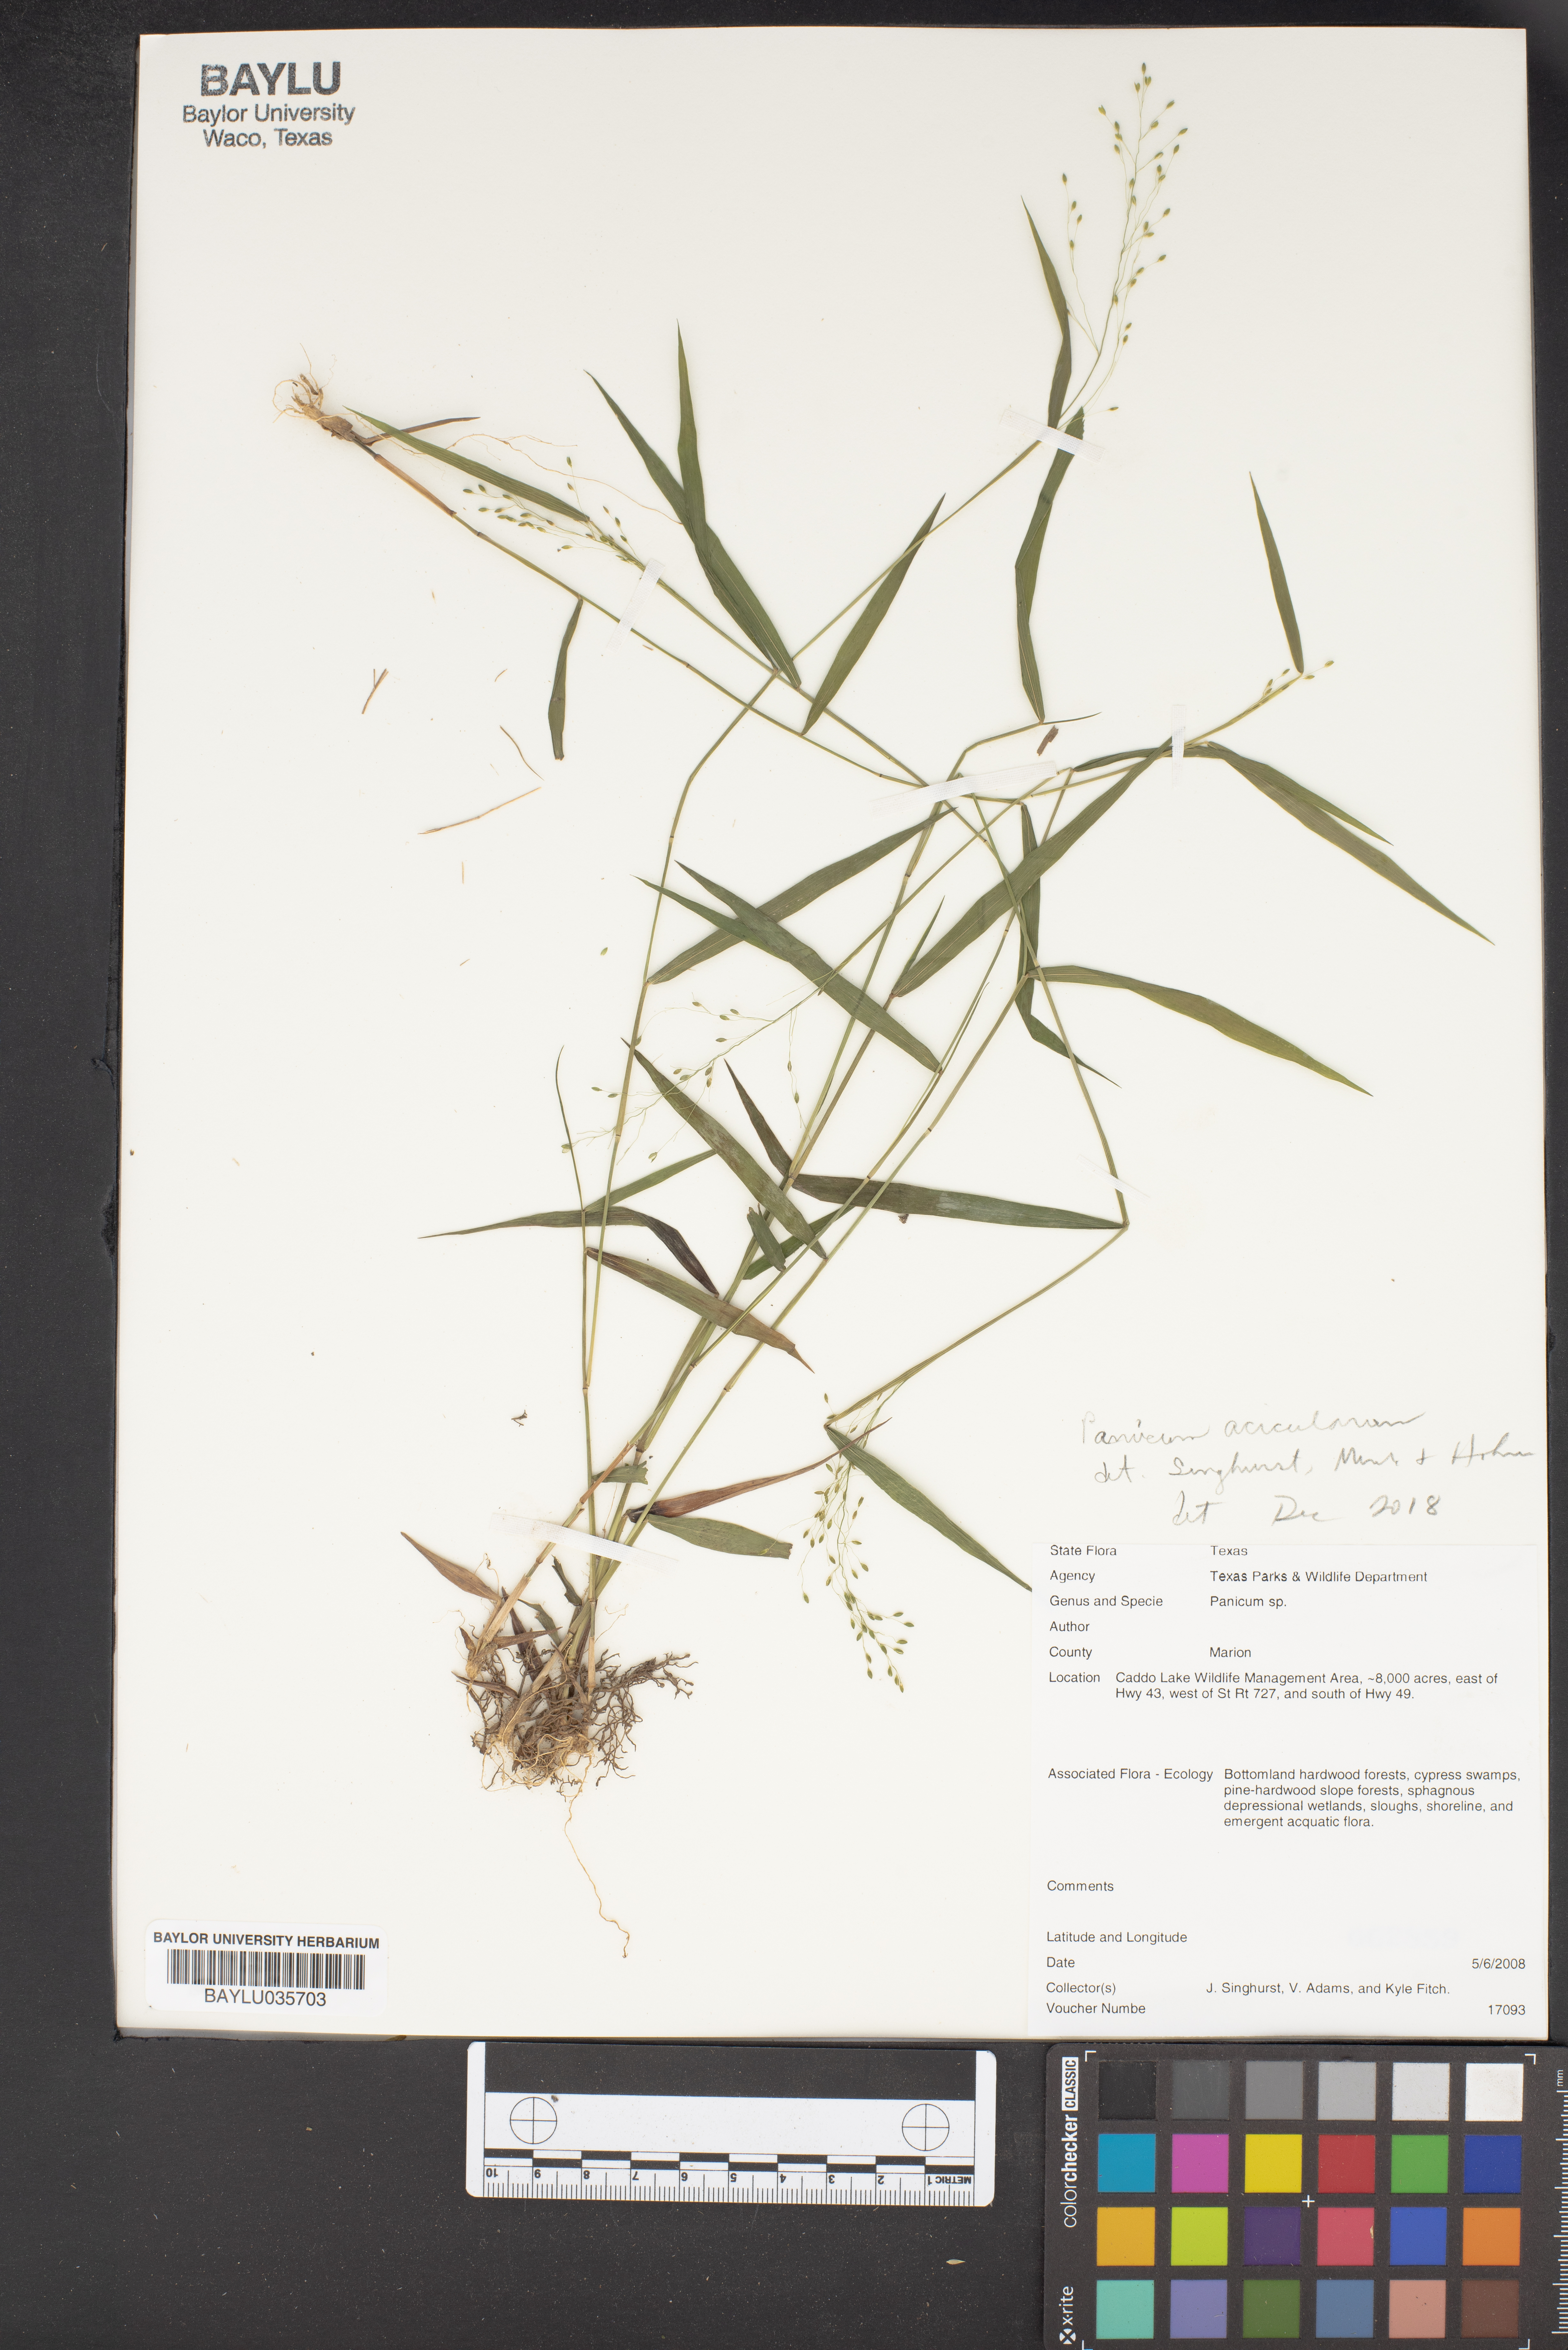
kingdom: Plantae
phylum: Tracheophyta
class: Liliopsida
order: Poales
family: Poaceae
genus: Panicum
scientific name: Panicum
